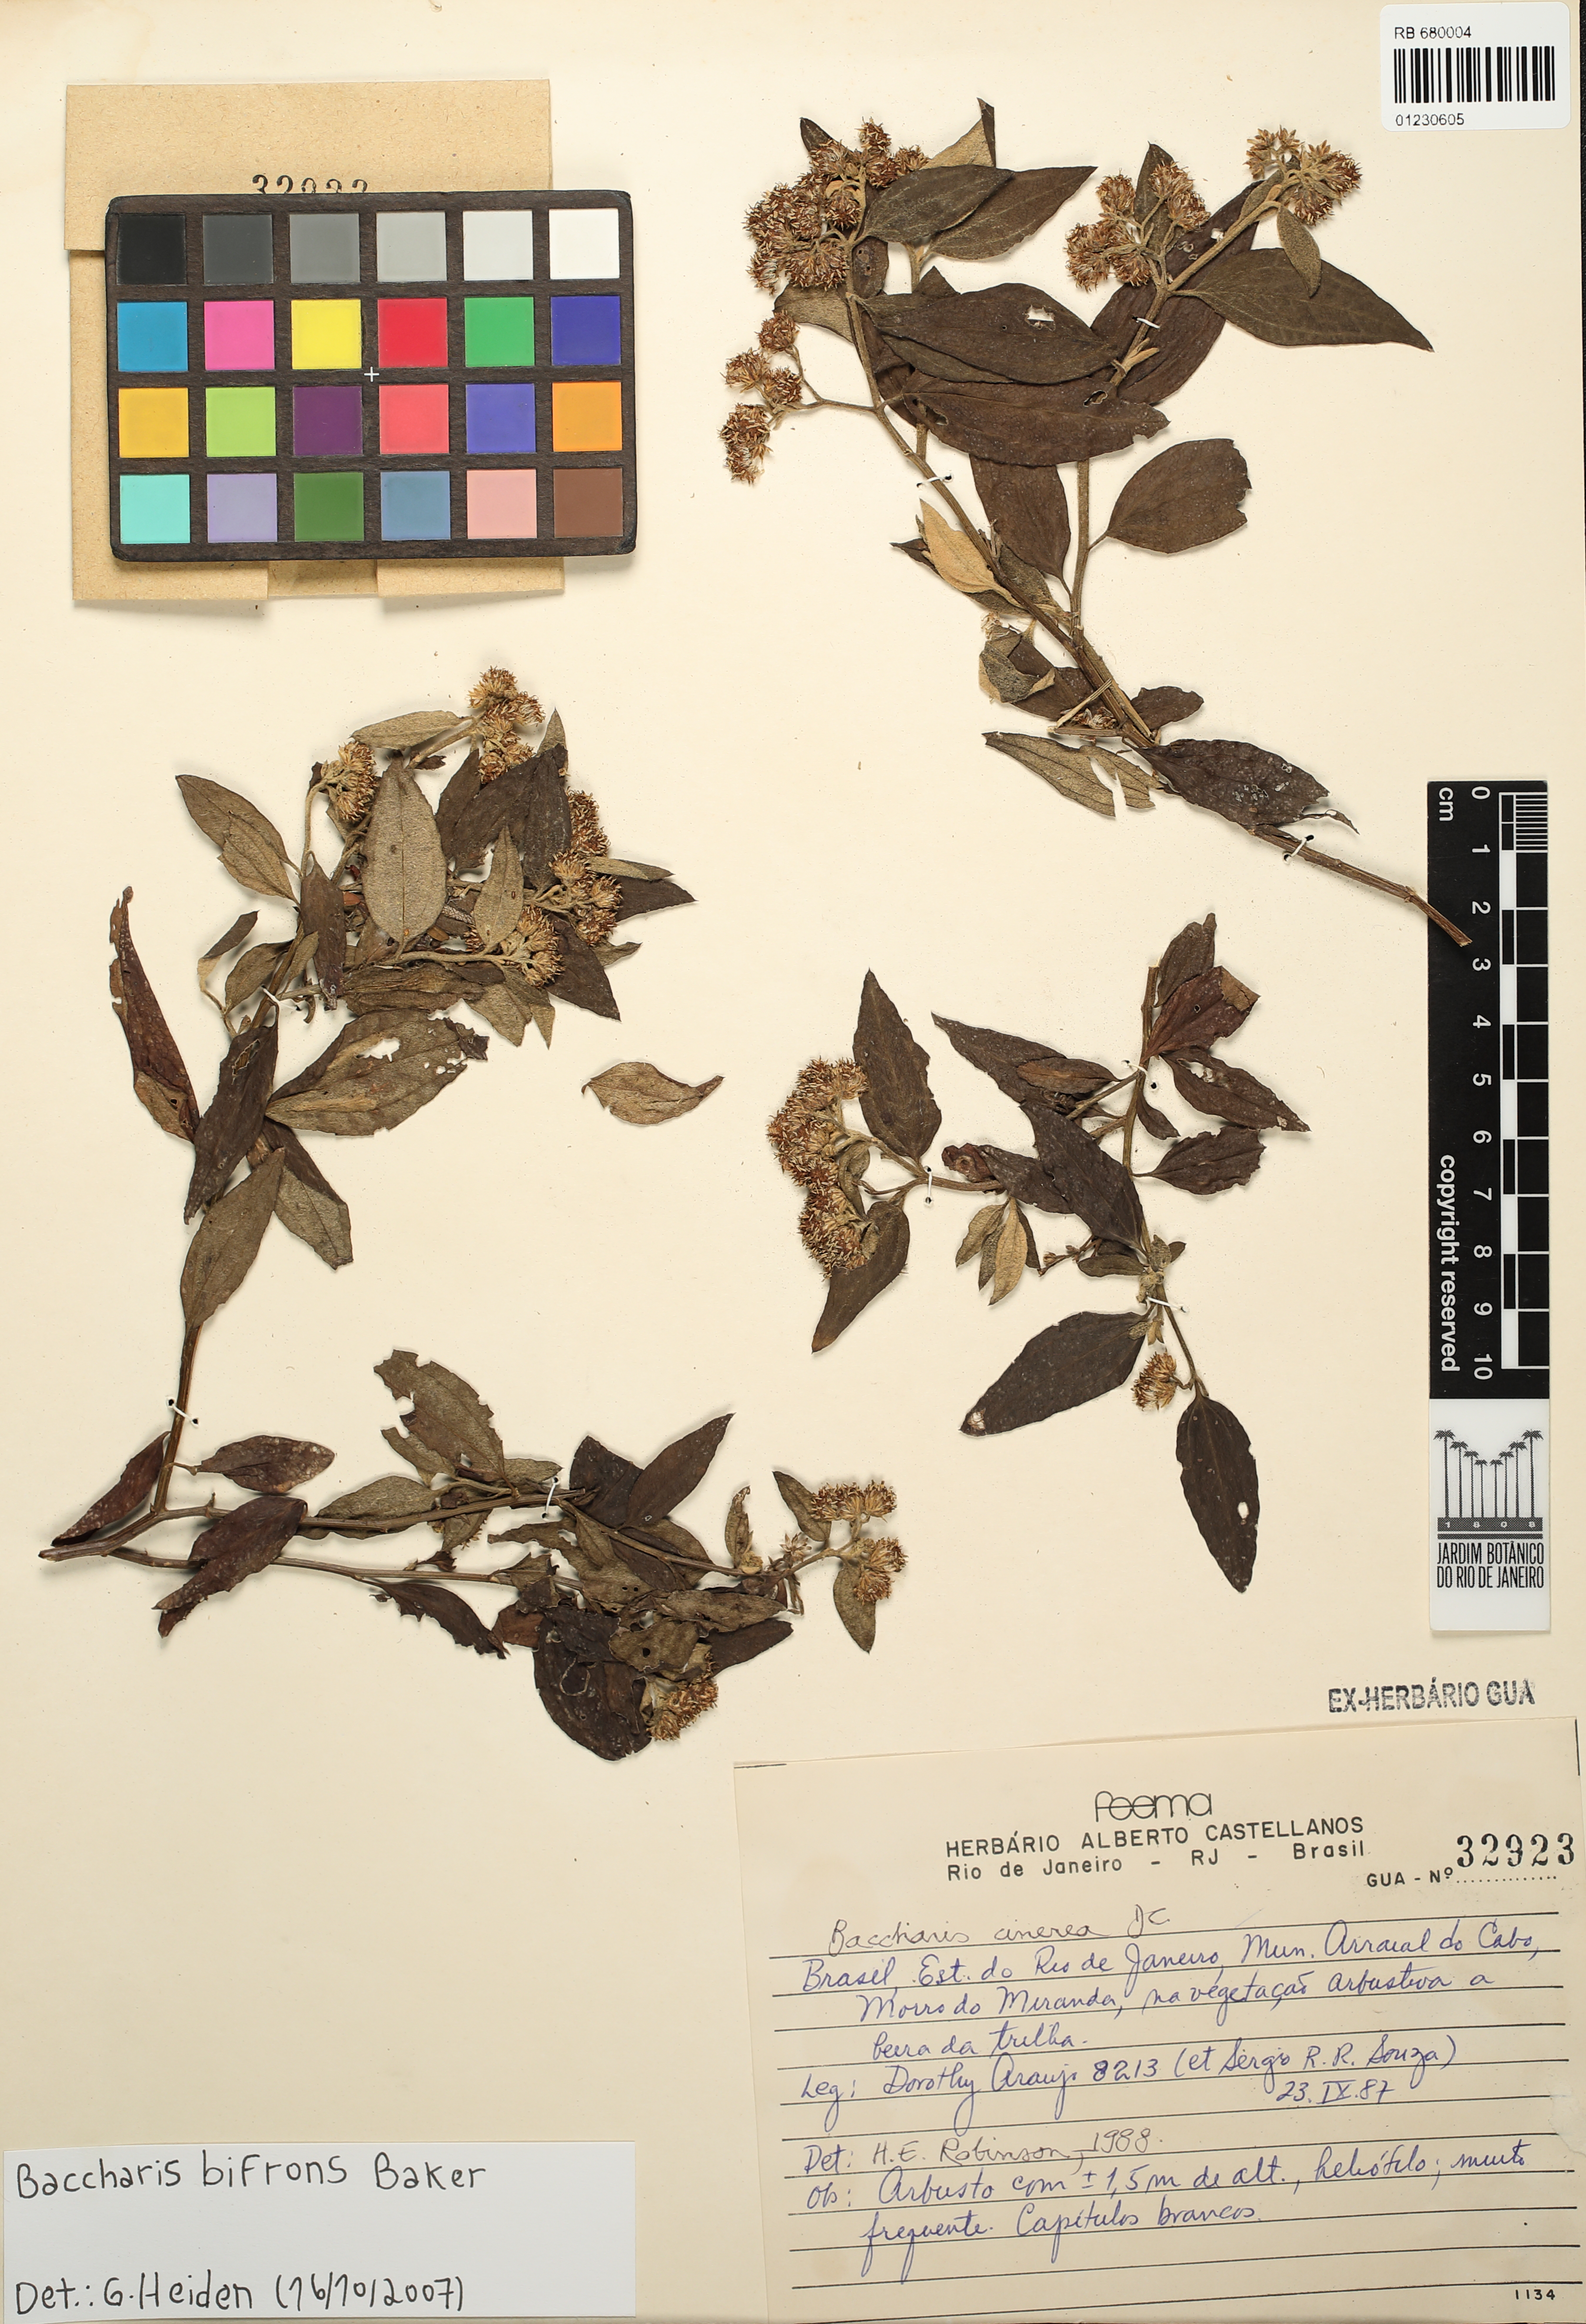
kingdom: Plantae
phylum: Tracheophyta
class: Magnoliopsida
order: Asterales
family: Asteraceae
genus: Baccharis
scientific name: Baccharis bifrons
